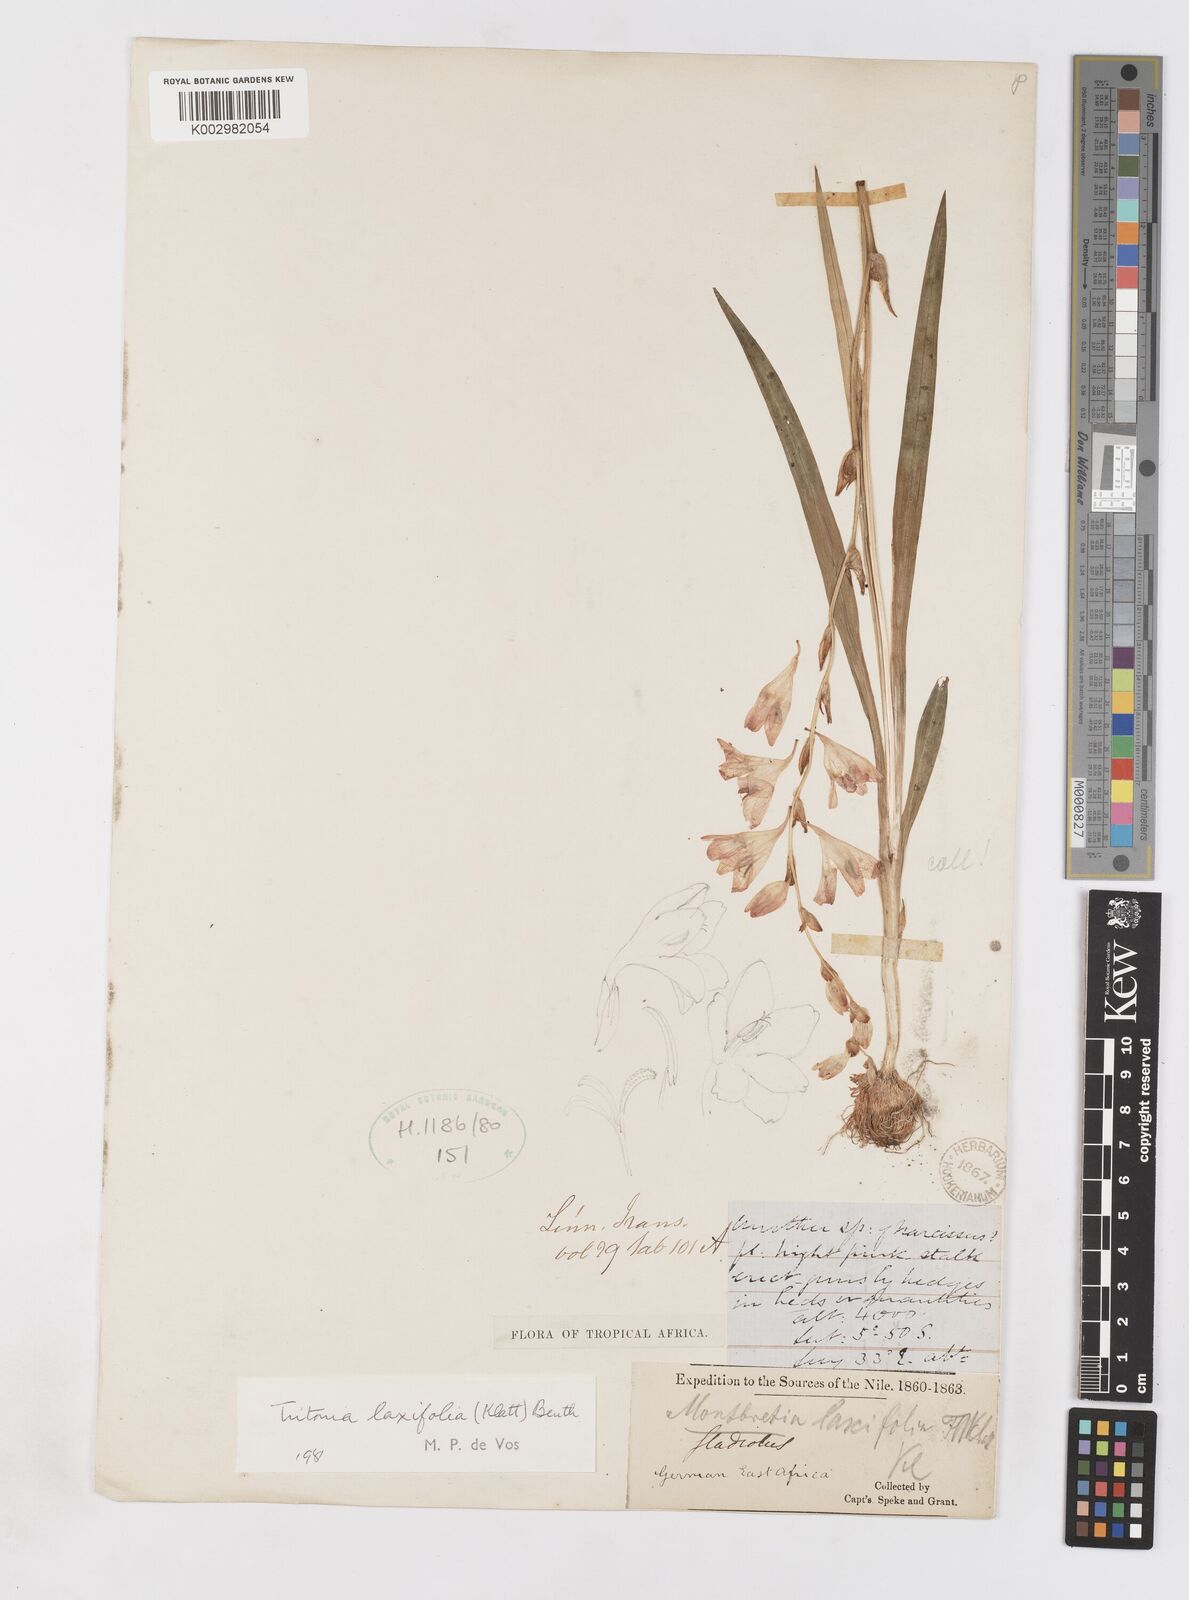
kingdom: Plantae
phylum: Tracheophyta
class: Liliopsida
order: Asparagales
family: Iridaceae
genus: Tritonia
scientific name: Tritonia laxifolia
